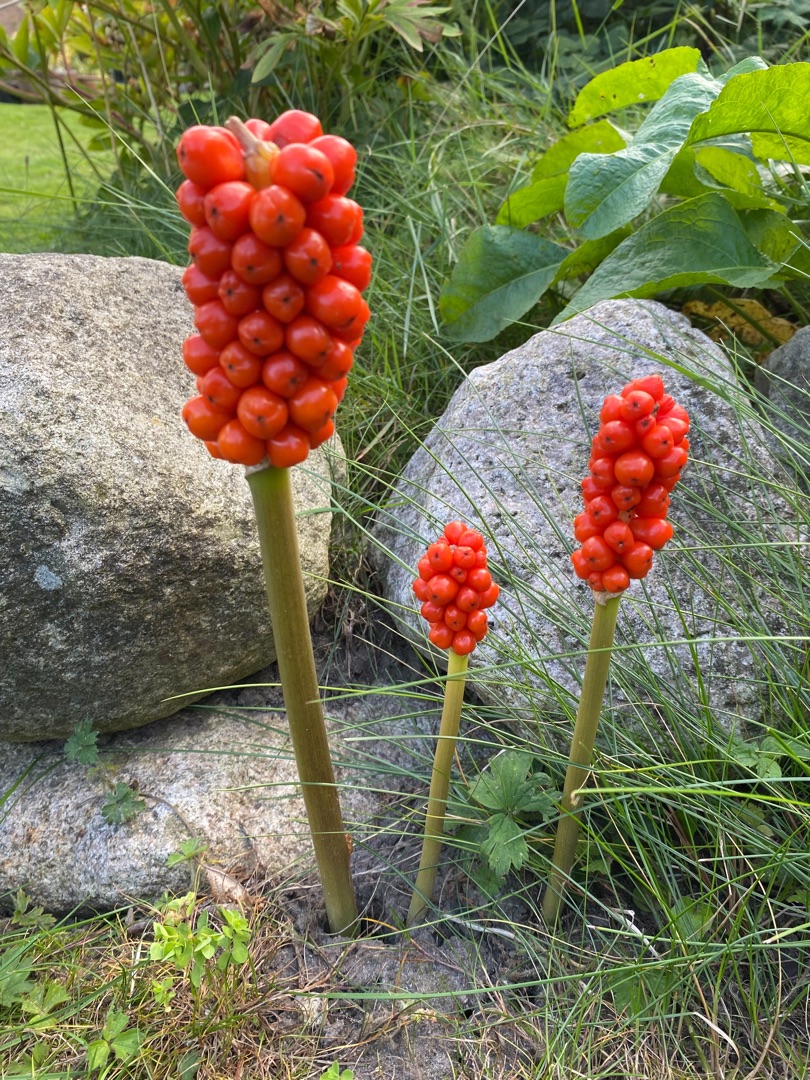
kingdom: Plantae
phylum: Tracheophyta
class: Liliopsida
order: Alismatales
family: Araceae
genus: Arum
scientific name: Arum
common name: Arumslægten
